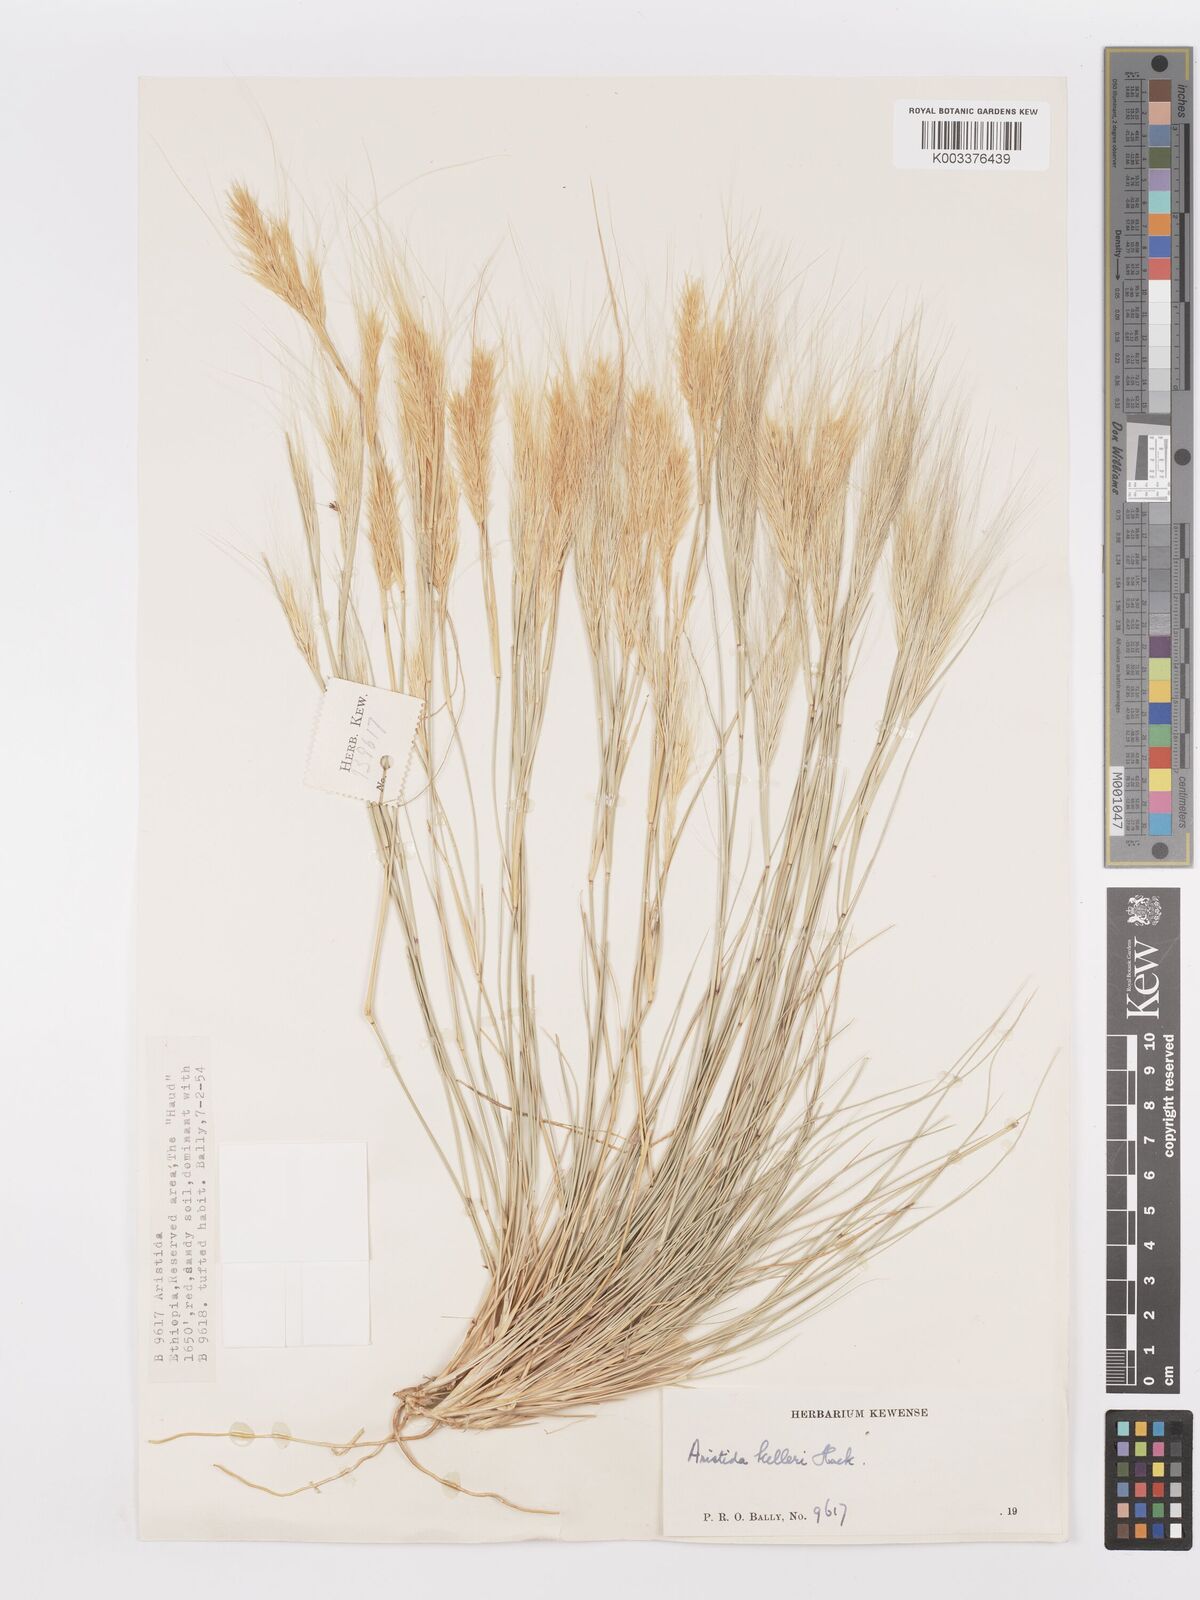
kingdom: Plantae
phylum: Tracheophyta
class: Liliopsida
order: Poales
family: Poaceae
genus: Aristida
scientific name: Aristida kelleri
